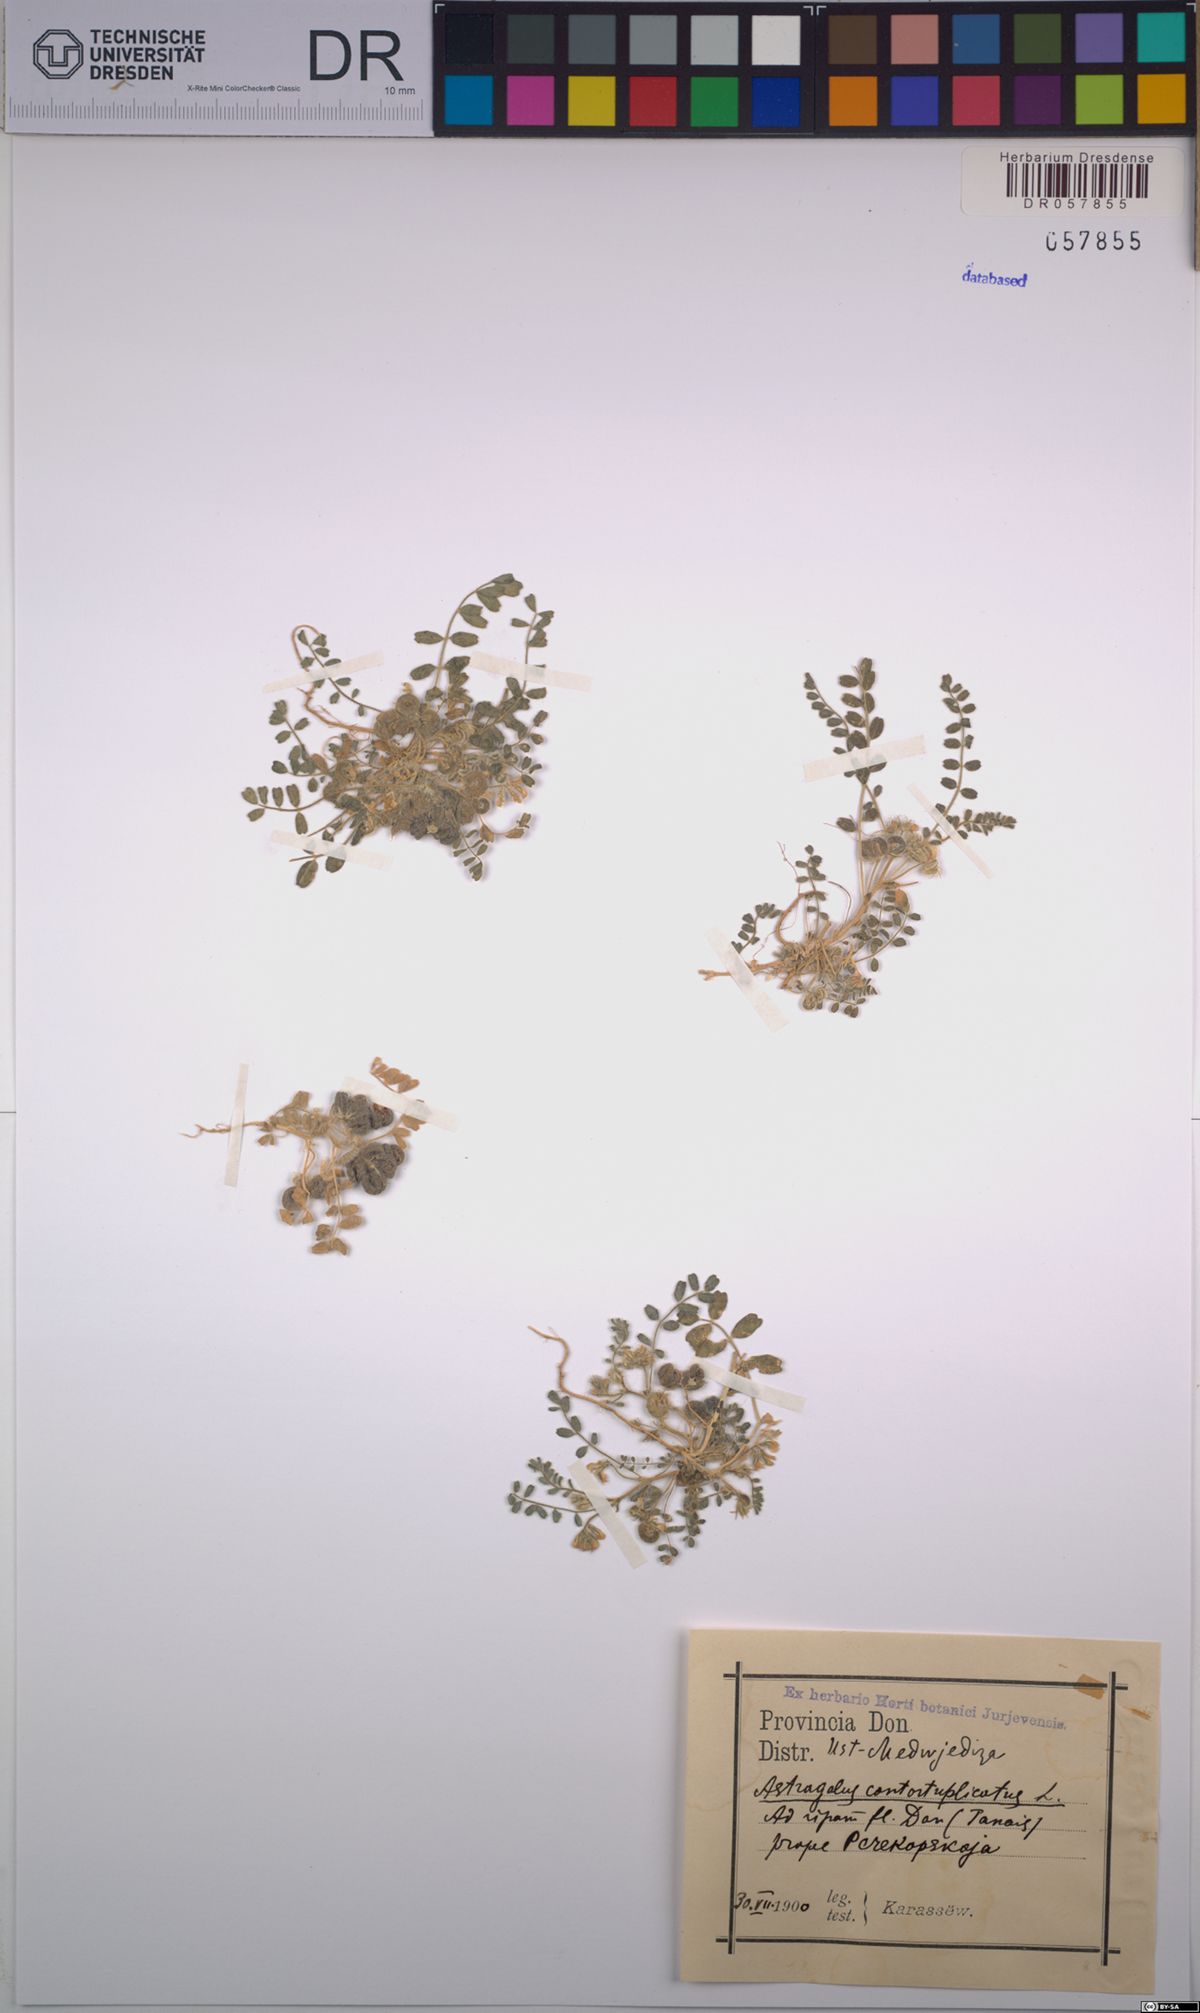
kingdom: Plantae
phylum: Tracheophyta
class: Magnoliopsida
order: Fabales
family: Fabaceae
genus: Astragalus
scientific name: Astragalus contortuplicatus
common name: Hungarian milkvetch
